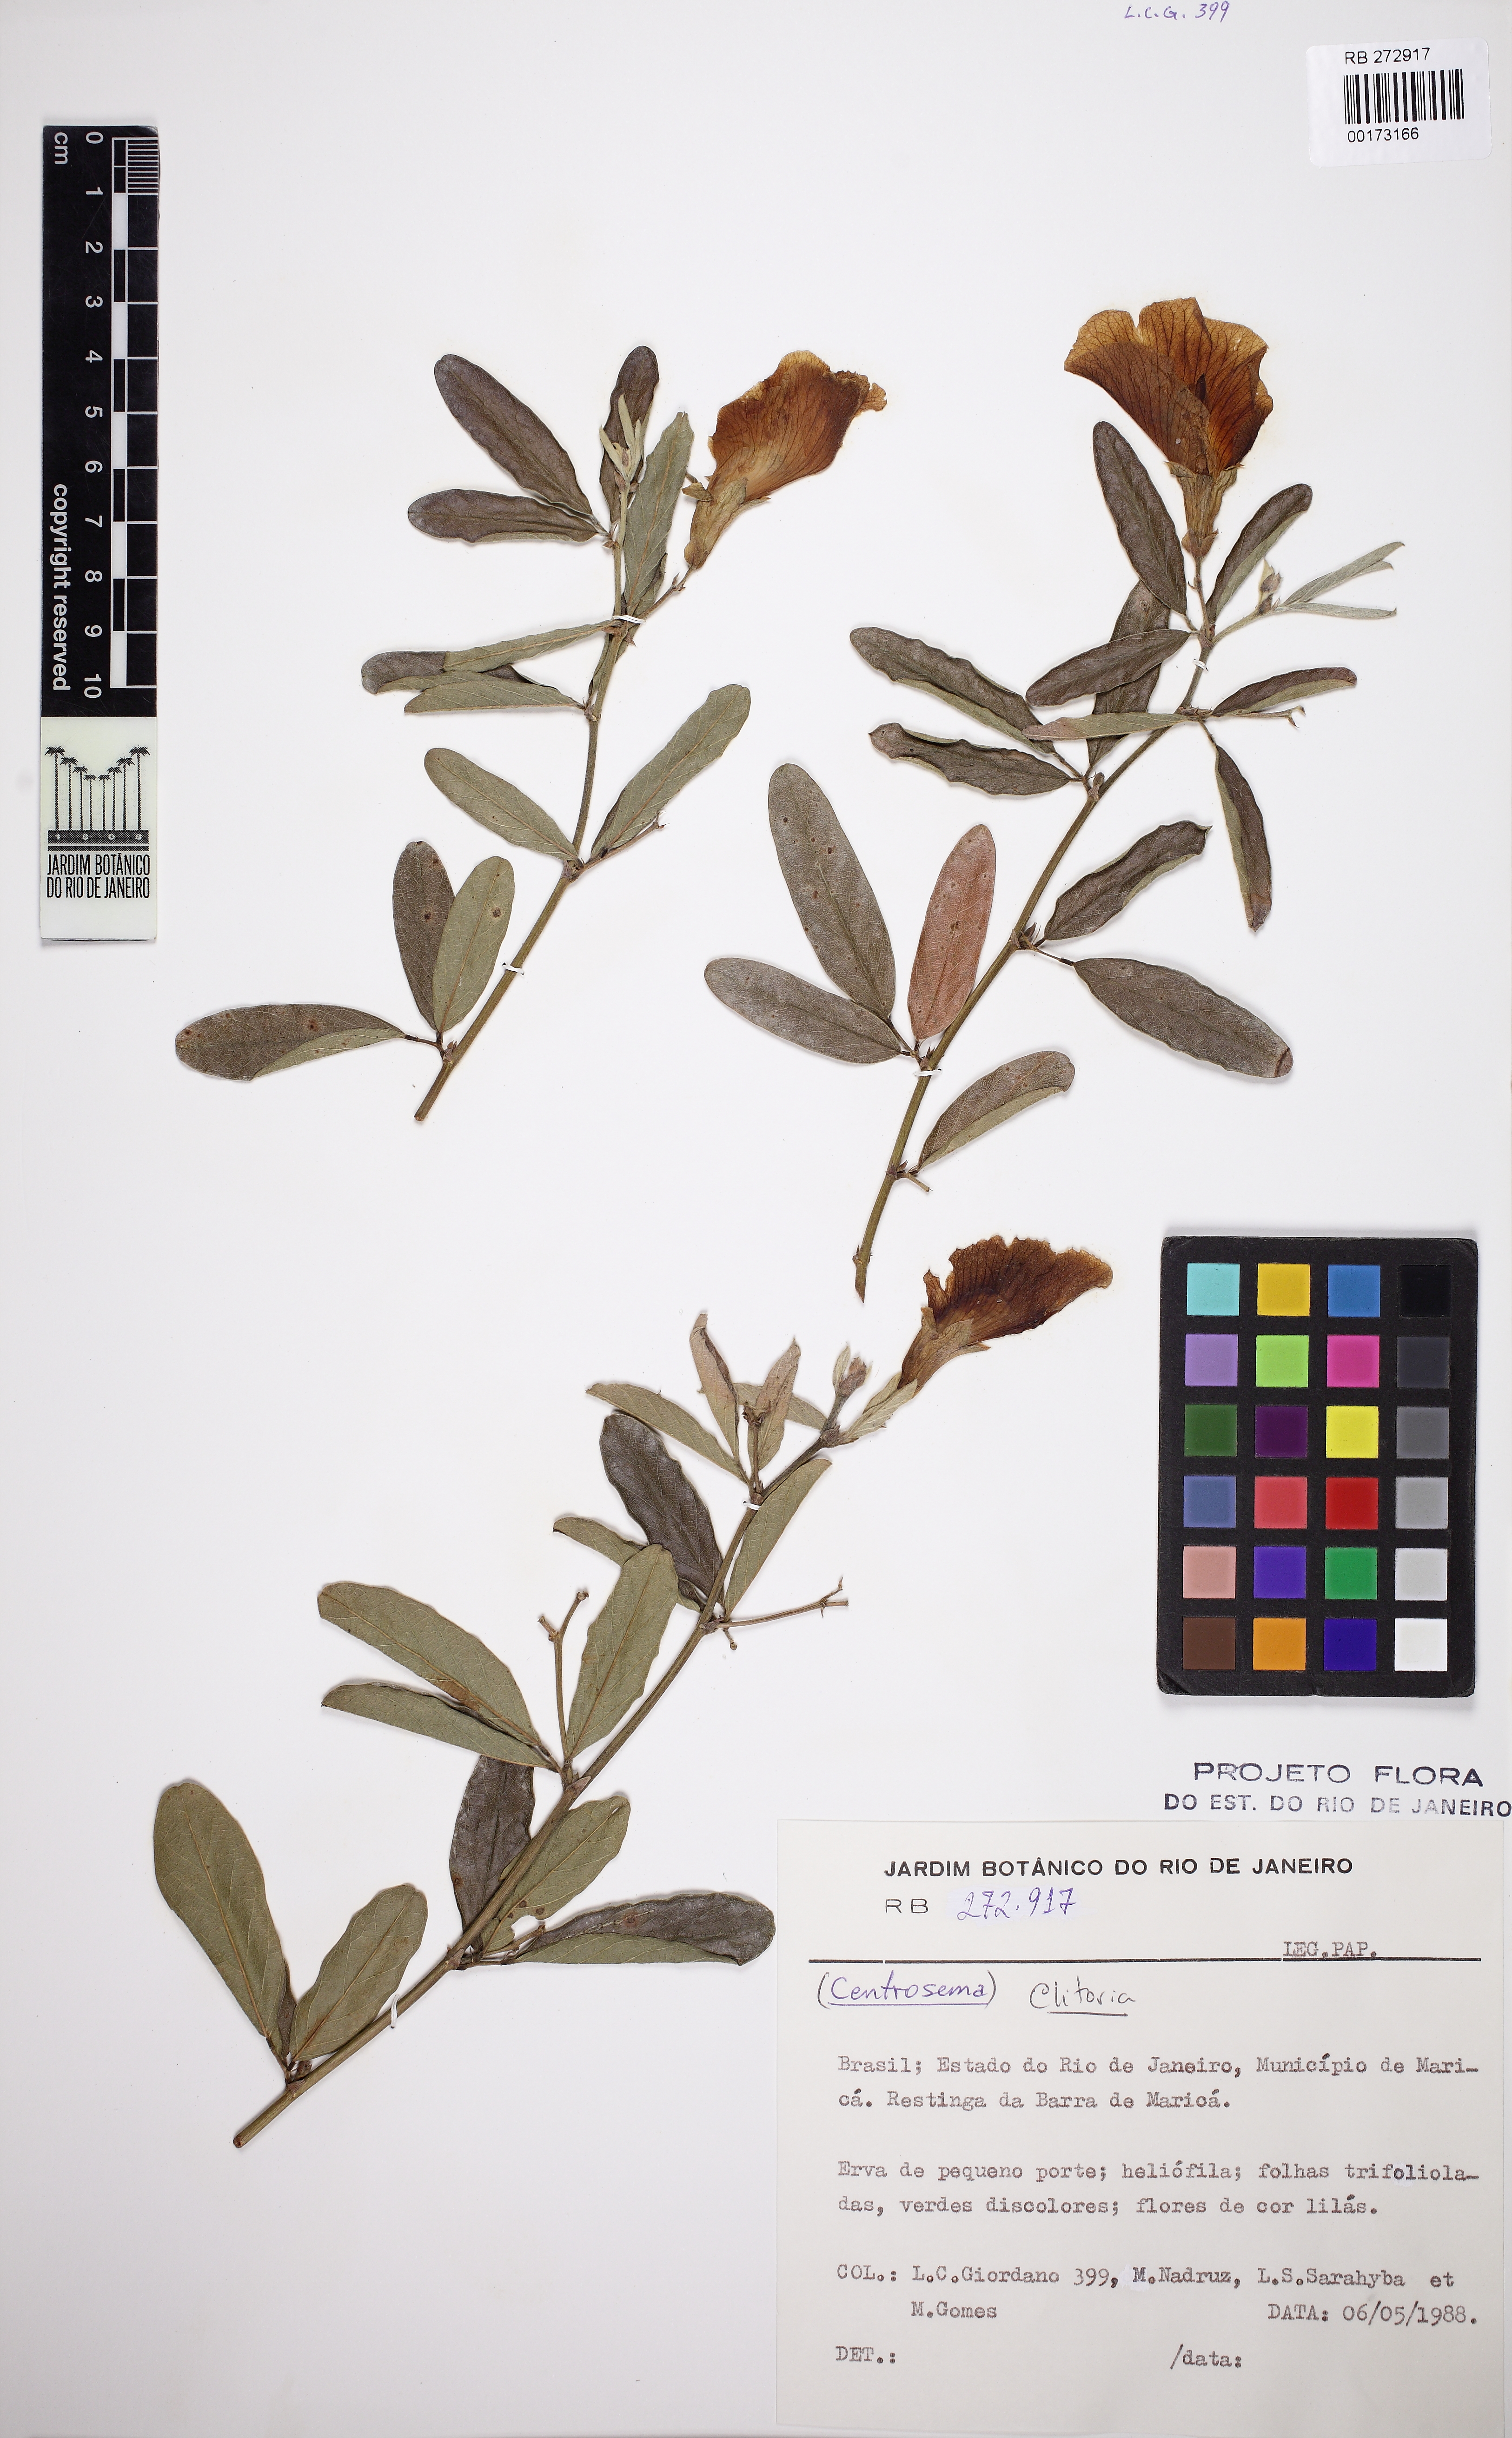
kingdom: Plantae
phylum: Tracheophyta
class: Magnoliopsida
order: Fabales
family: Fabaceae
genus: Clitoria
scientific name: Clitoria laurifolia
